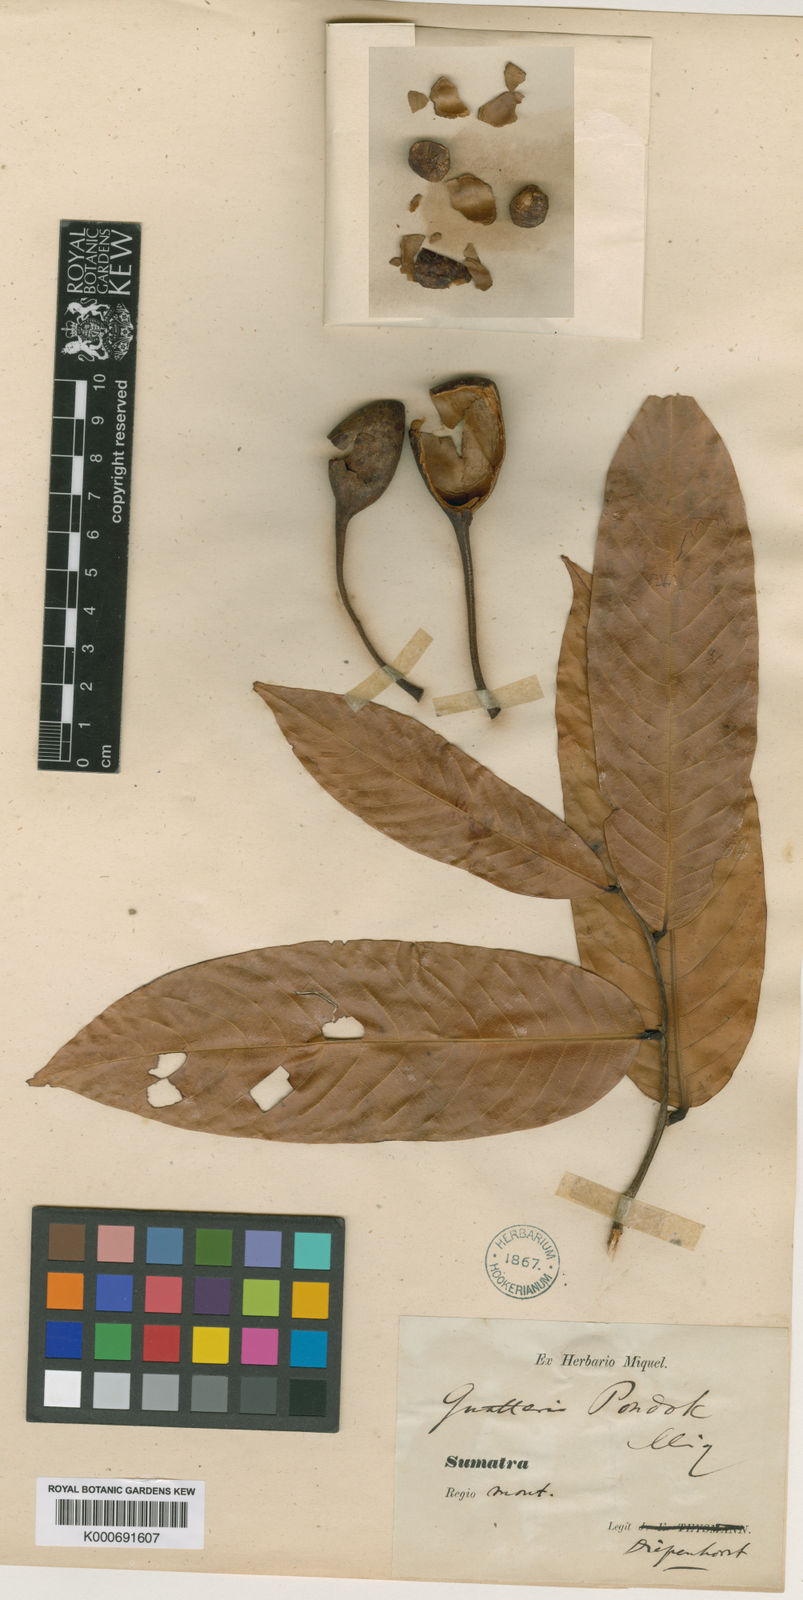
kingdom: Plantae
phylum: Tracheophyta
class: Magnoliopsida
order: Magnoliales
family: Annonaceae
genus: Guatteria
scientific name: Guatteria pondok
